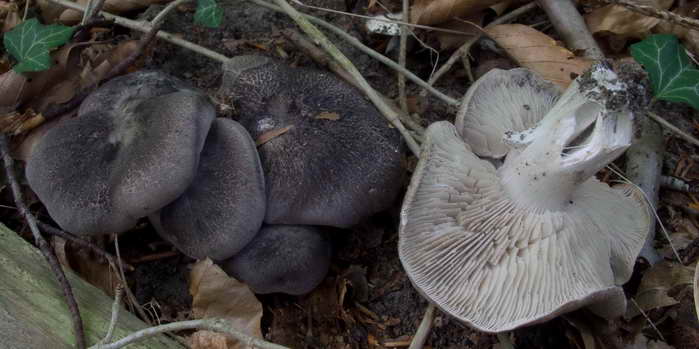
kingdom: Fungi
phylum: Basidiomycota
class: Agaricomycetes
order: Agaricales
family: Tricholomataceae
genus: Tricholoma
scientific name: Tricholoma orirubens
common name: rødbladet ridderhat
